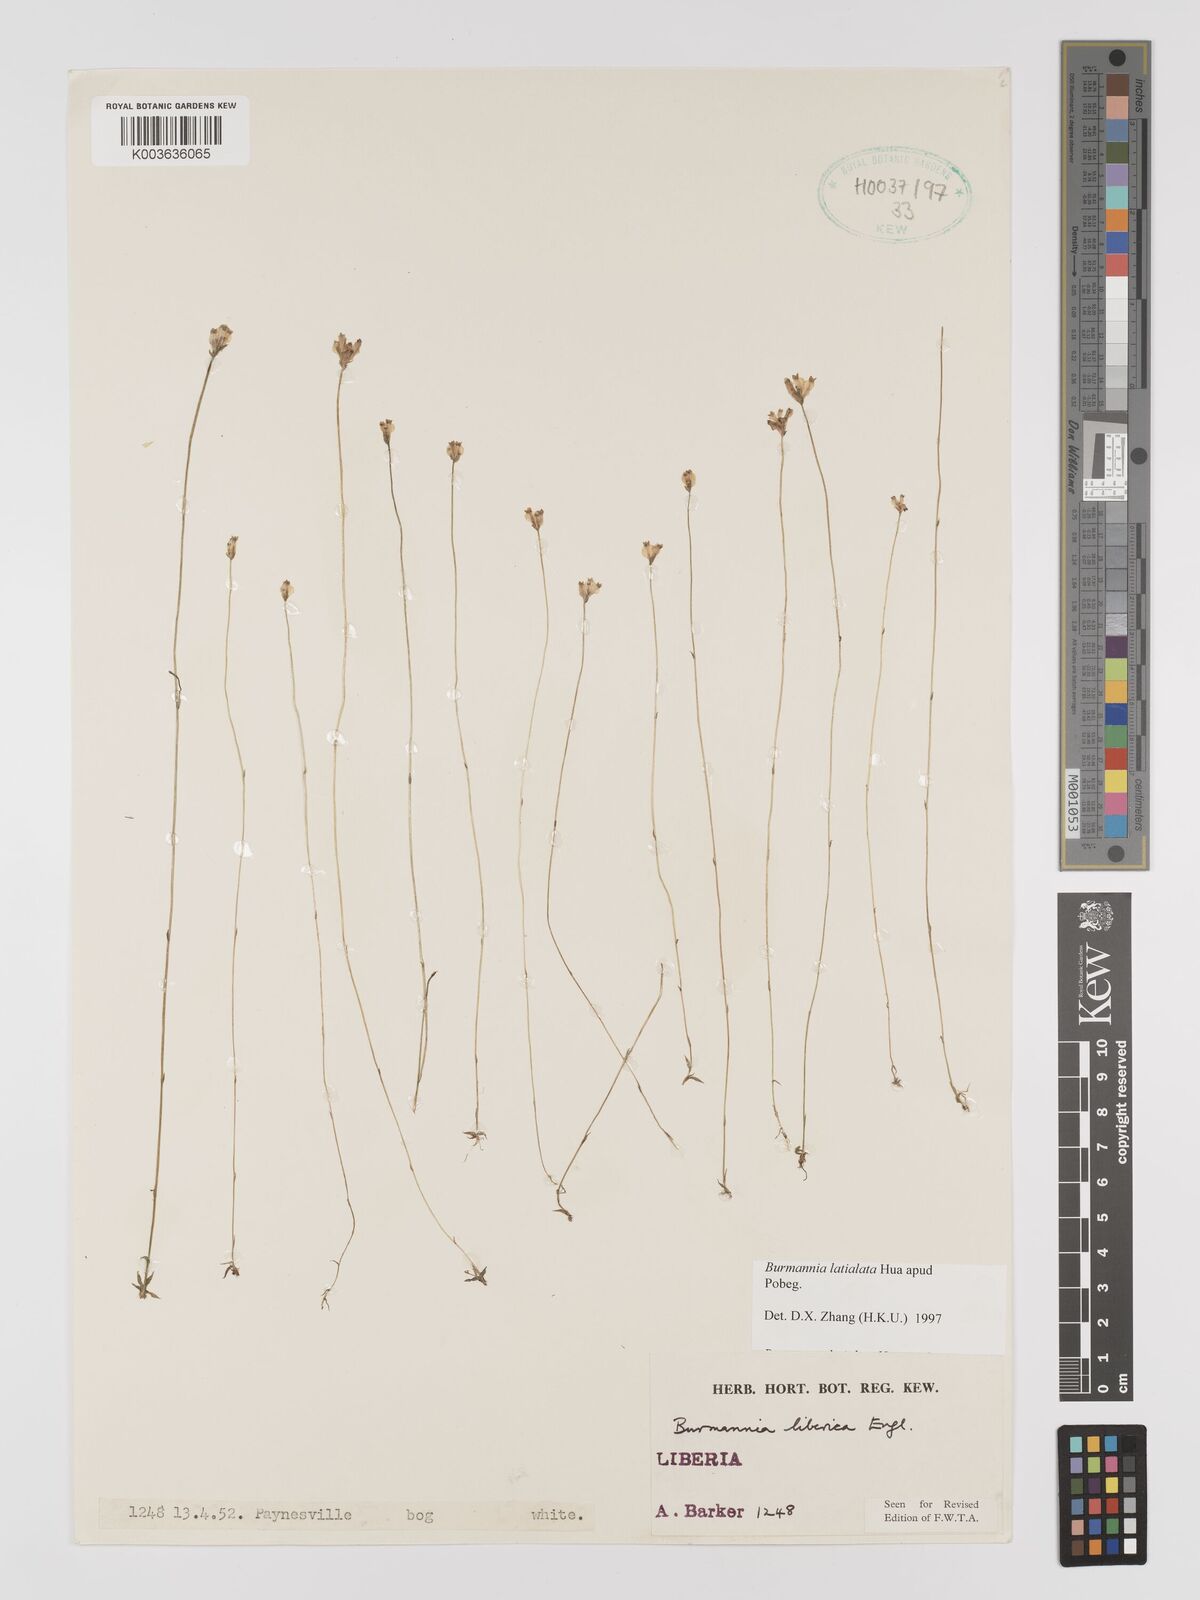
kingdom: Plantae
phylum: Tracheophyta
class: Liliopsida
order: Dioscoreales
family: Burmanniaceae
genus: Burmannia
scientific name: Burmannia madagascariensis
